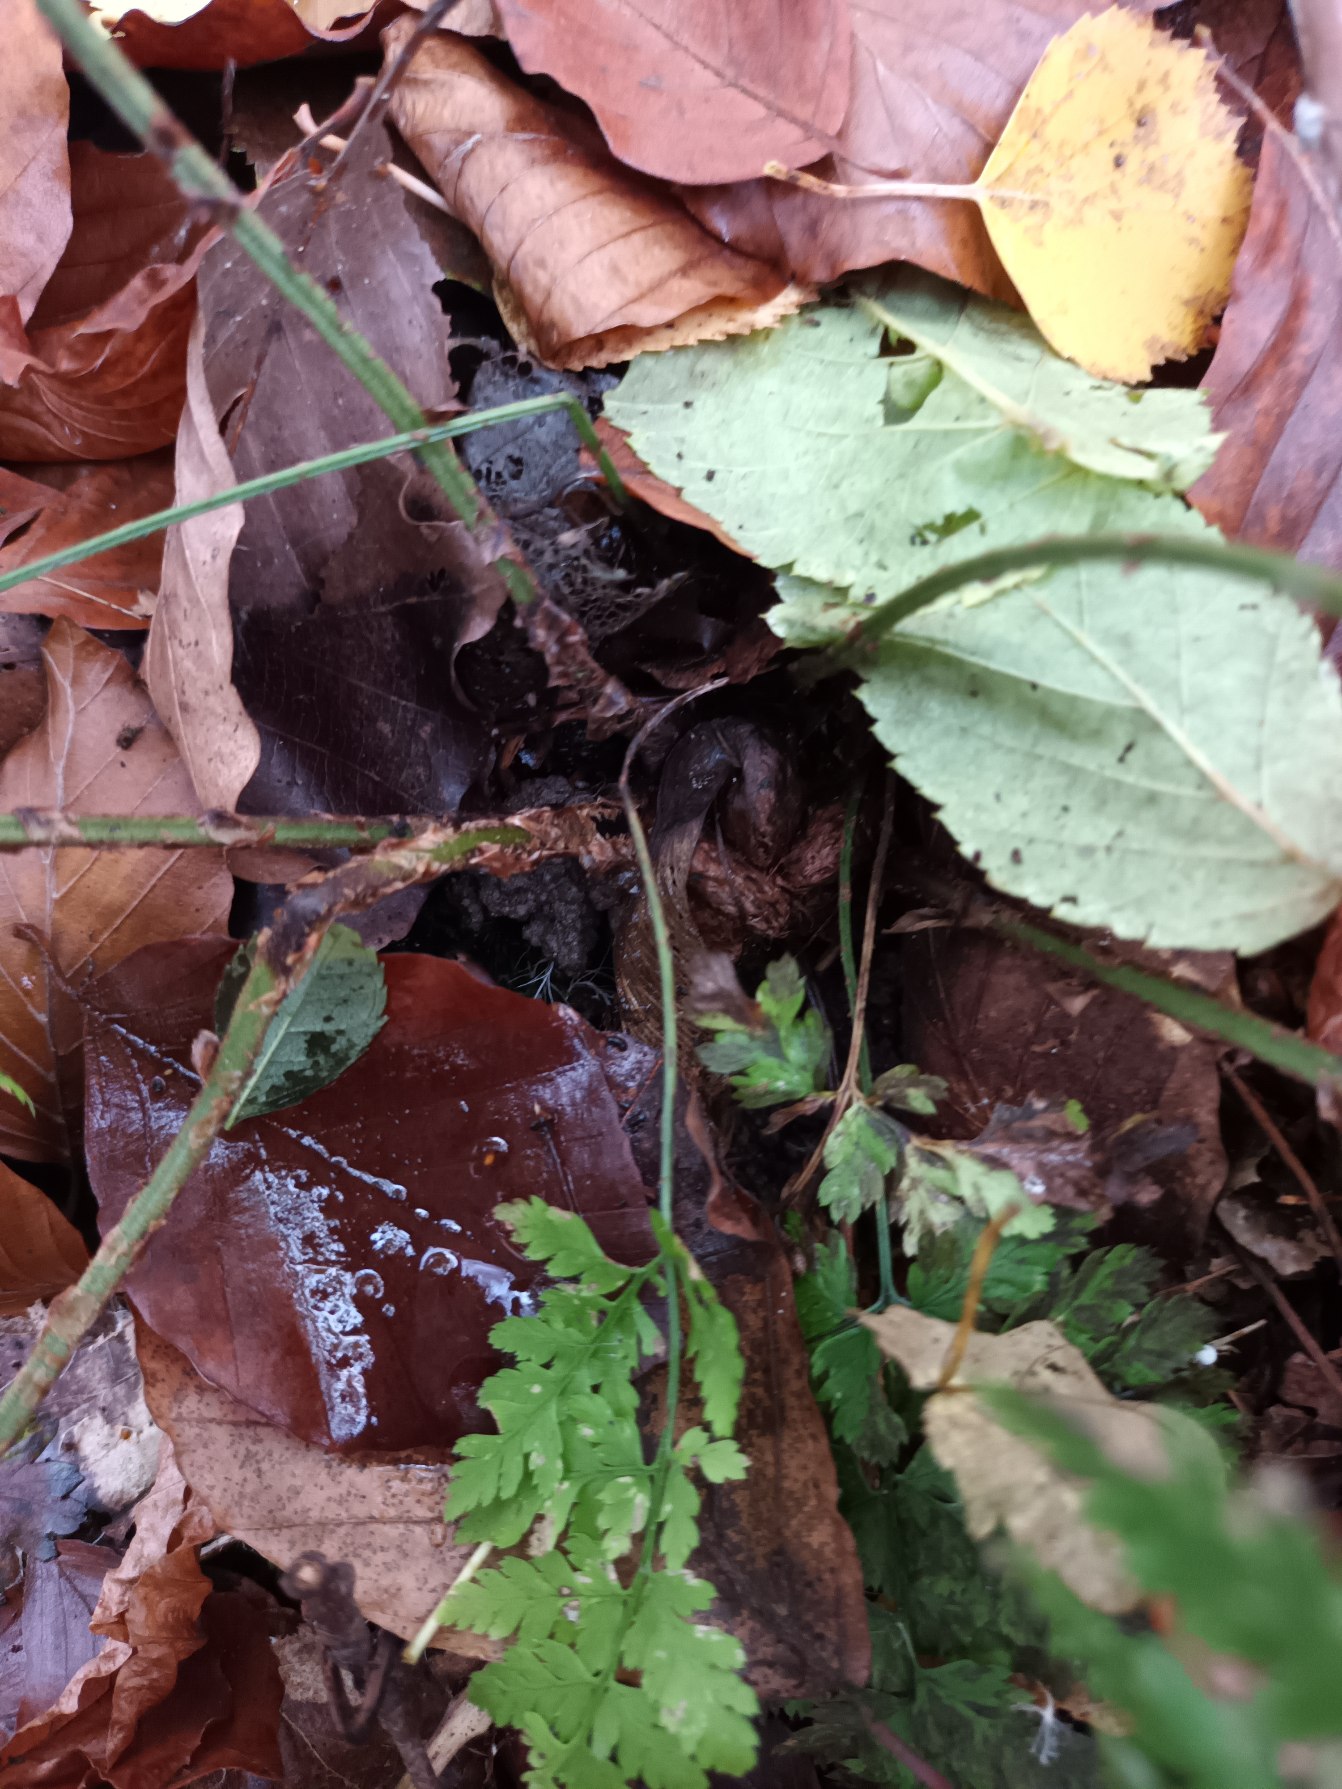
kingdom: Plantae
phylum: Tracheophyta
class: Polypodiopsida
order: Polypodiales
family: Dryopteridaceae
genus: Dryopteris
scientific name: Dryopteris dilatata
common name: Bredbladet mangeløv
